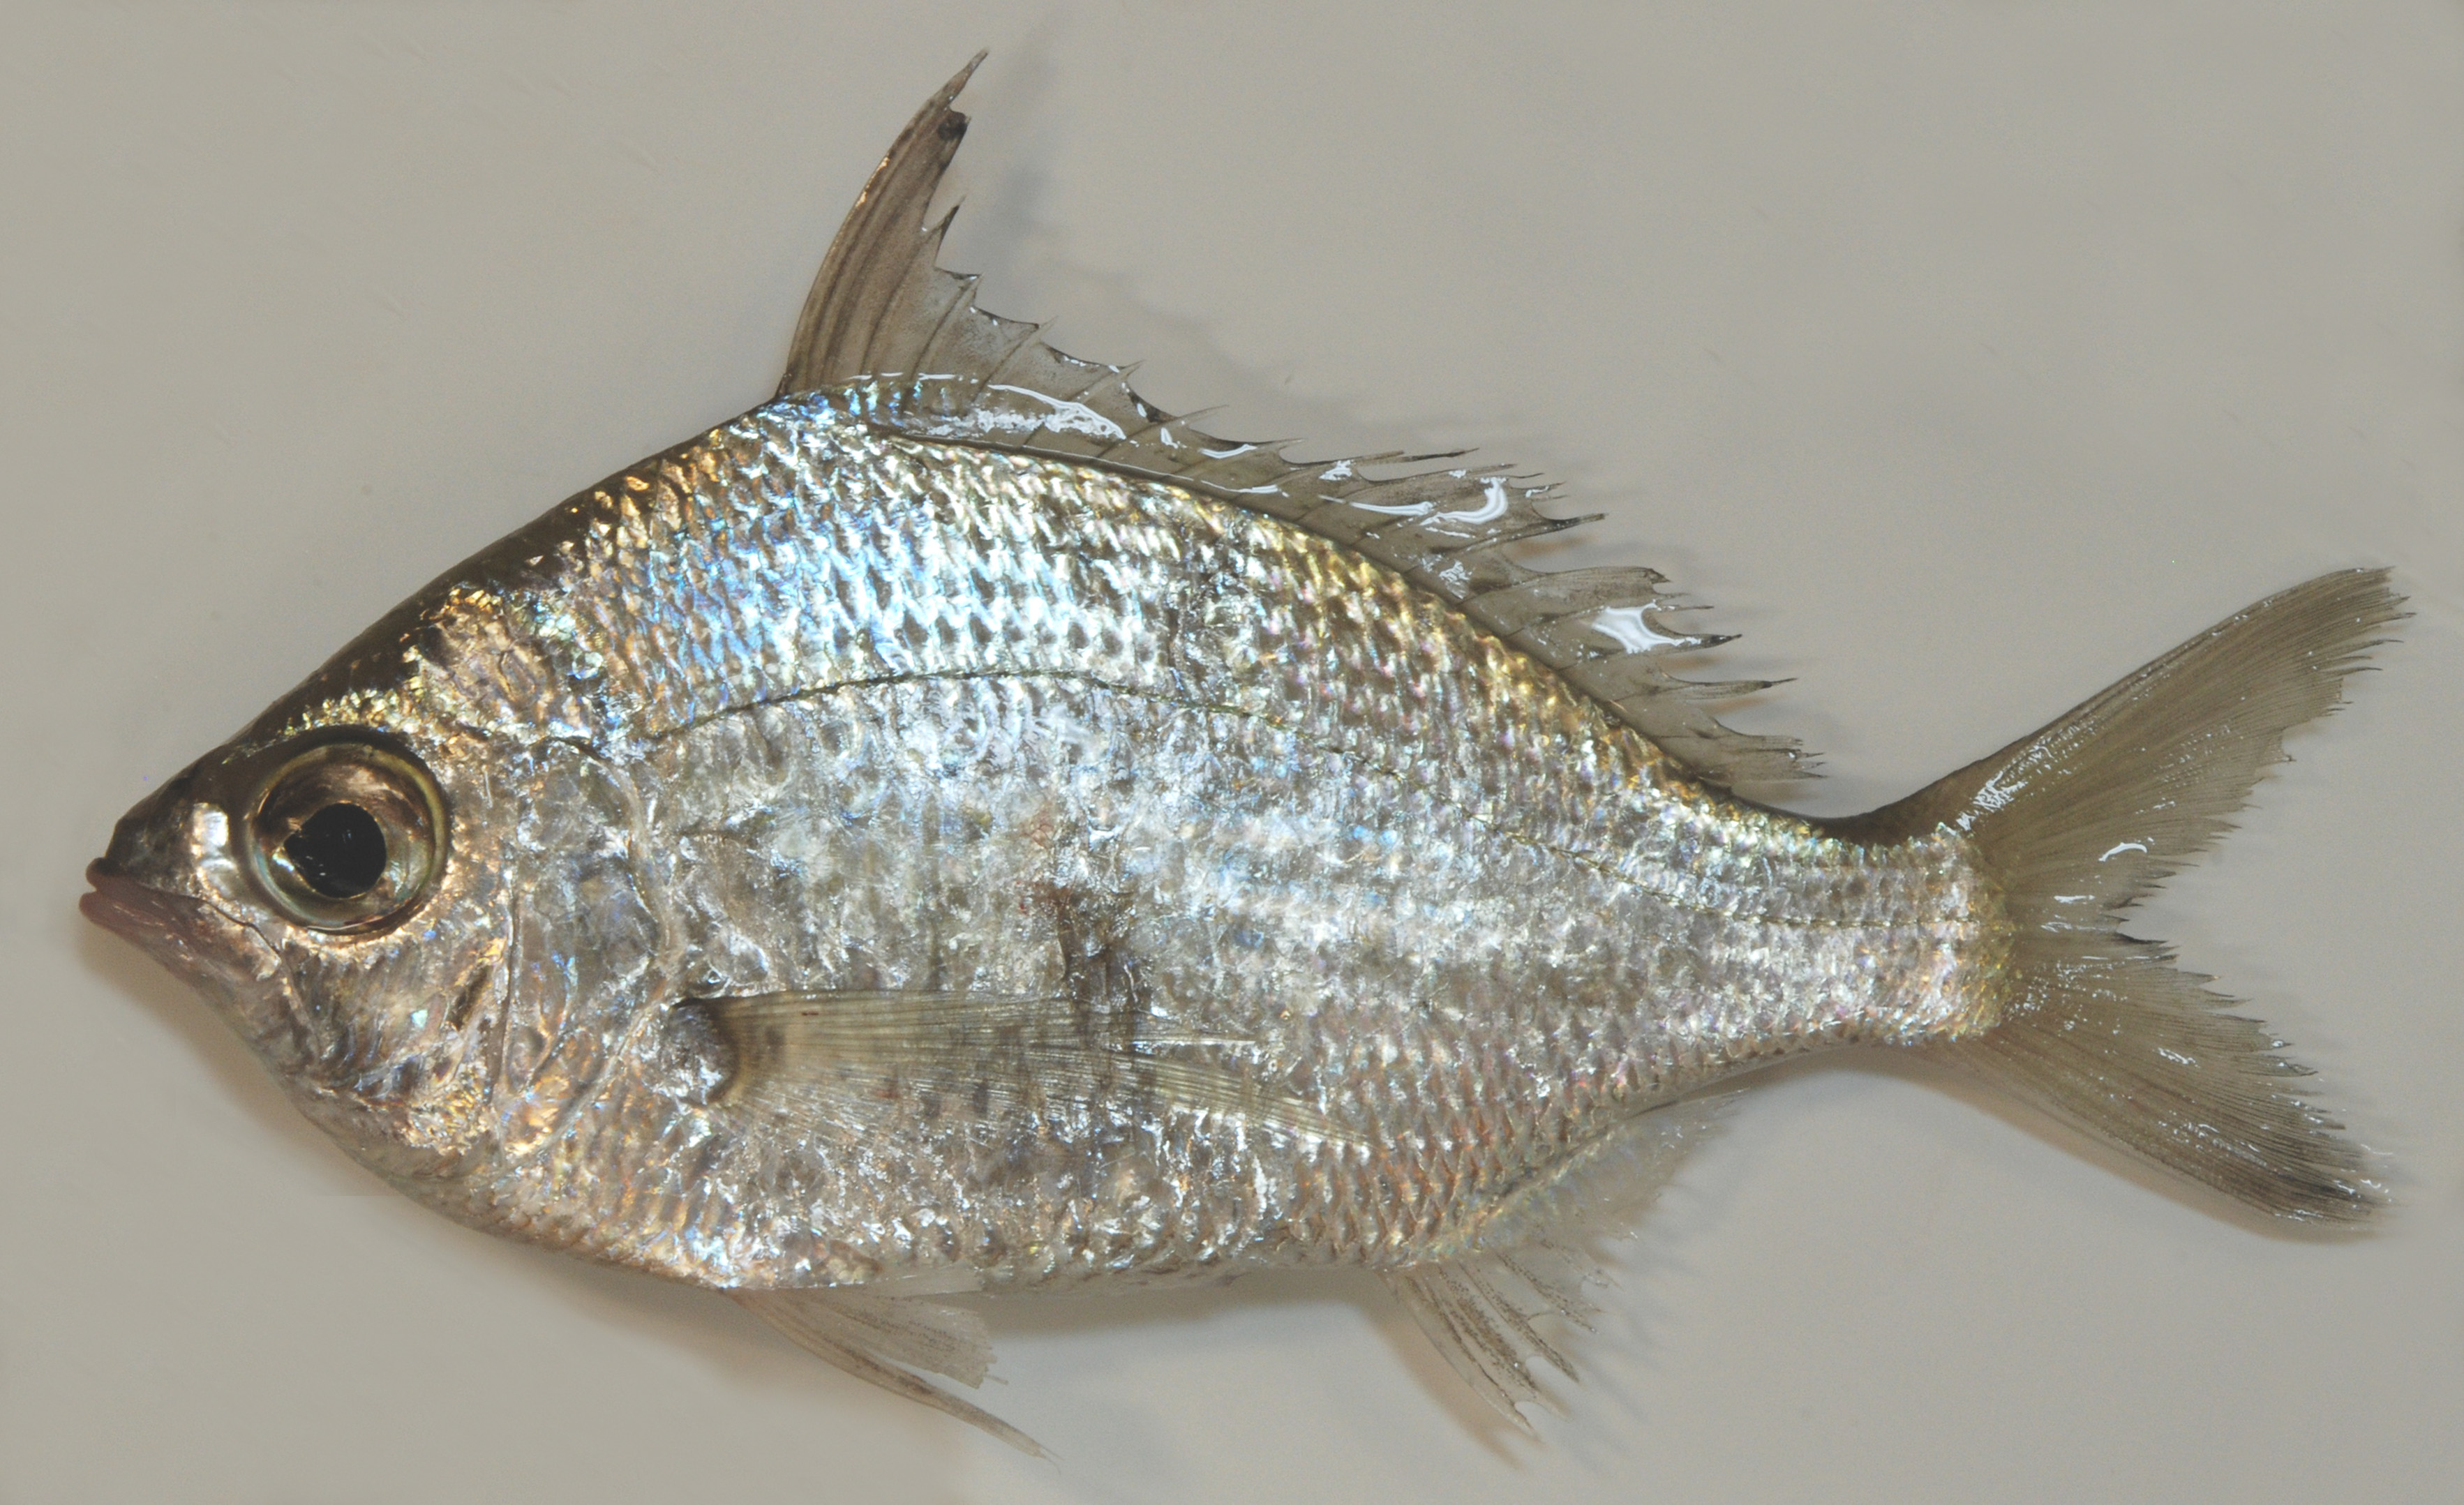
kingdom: Animalia
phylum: Chordata
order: Perciformes
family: Gerreidae
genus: Gerres
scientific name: Gerres mozambiquensis
